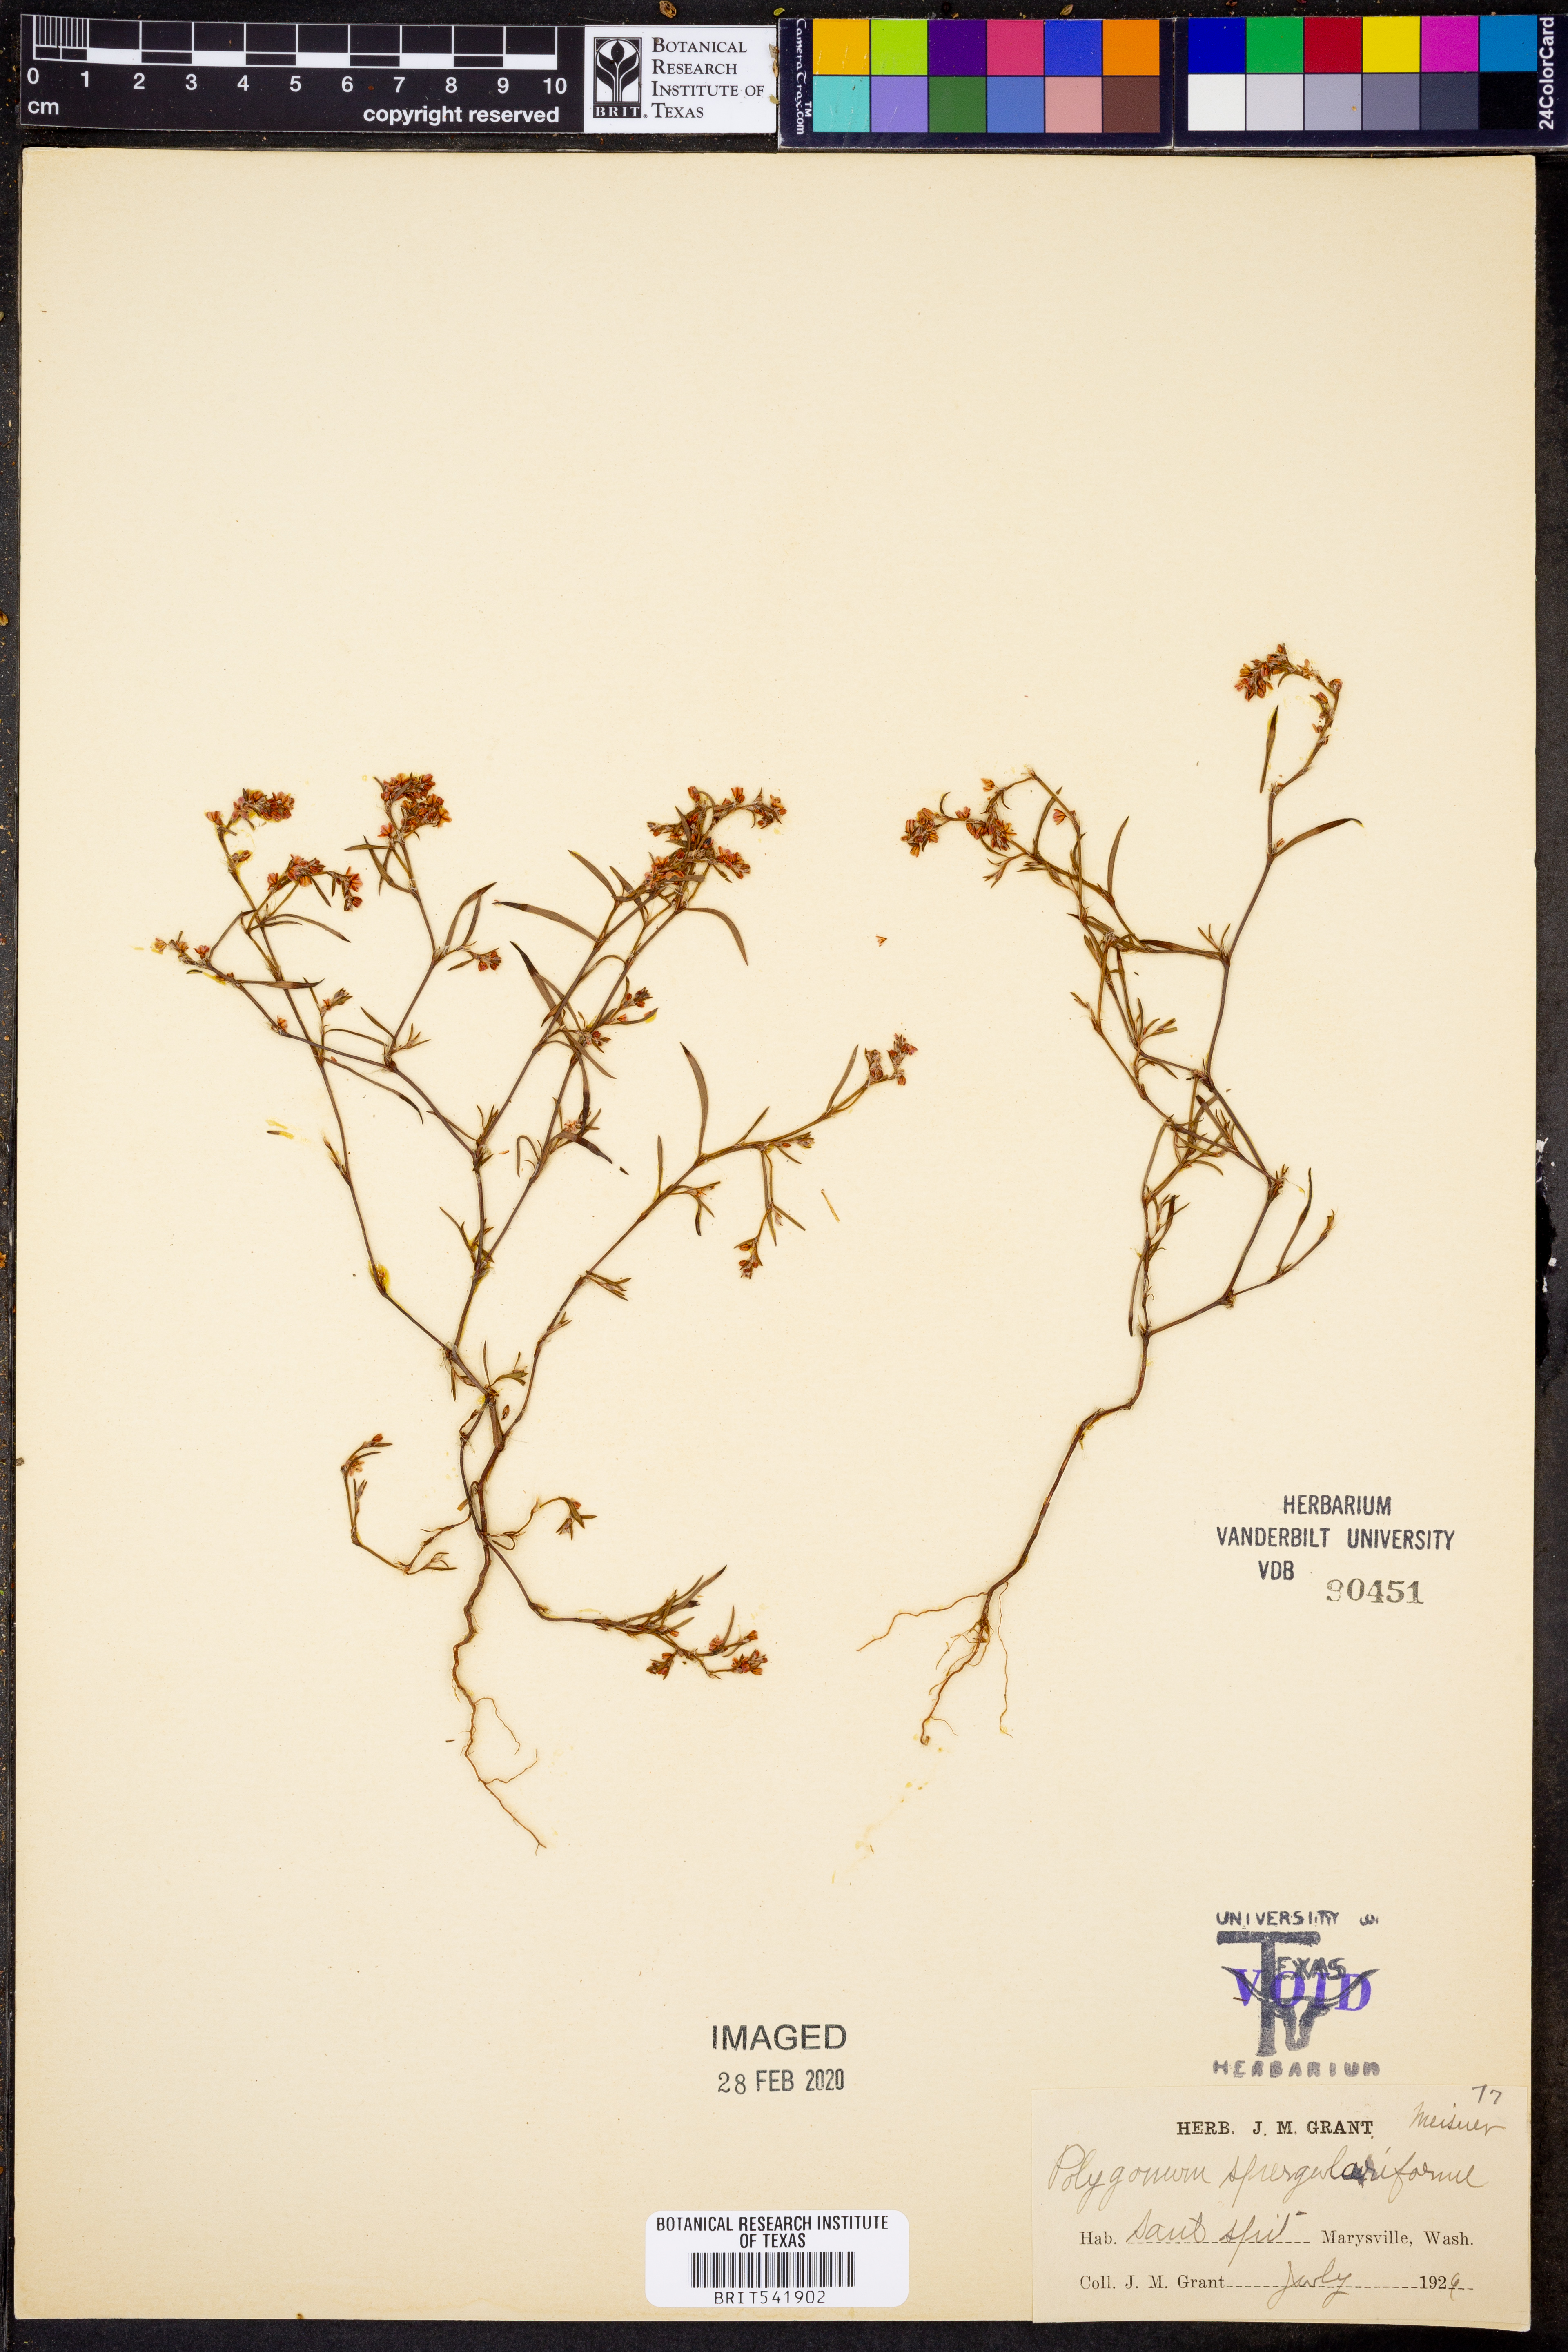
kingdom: Plantae
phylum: Tracheophyta
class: Magnoliopsida
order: Caryophyllales
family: Polygonaceae
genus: Polygonum
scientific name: Polygonum spergulariiforme
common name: Fall knotweed
